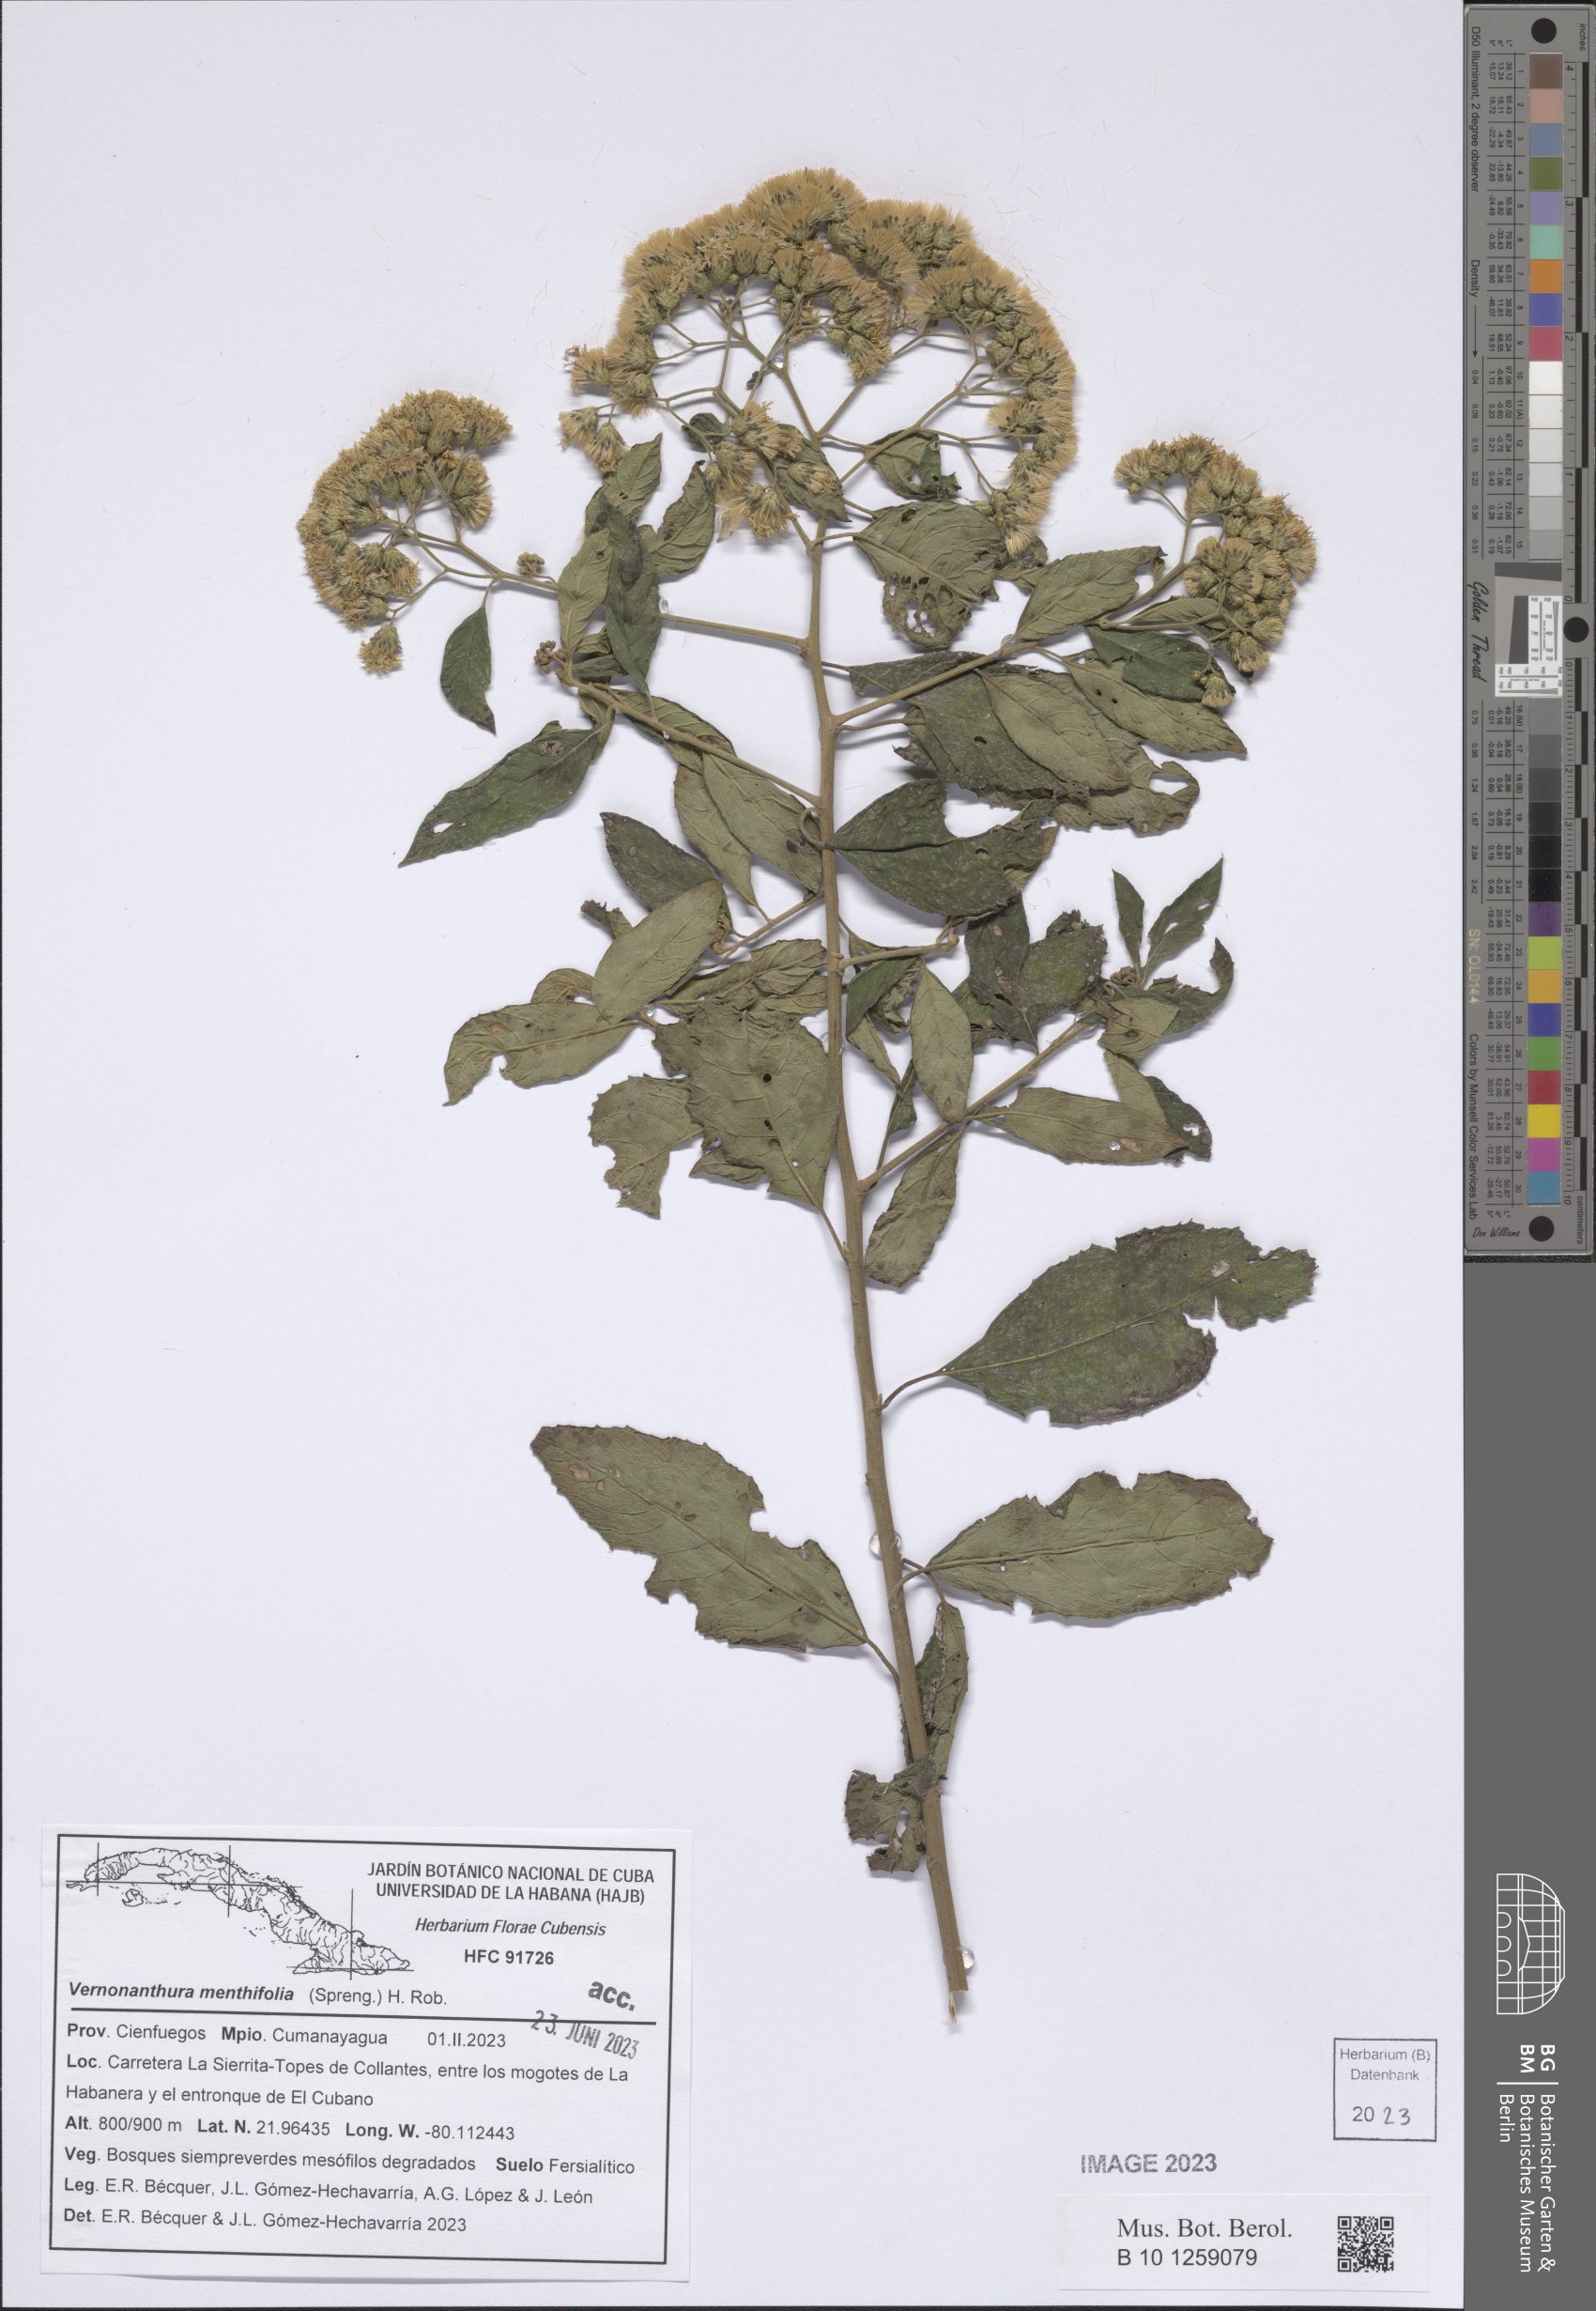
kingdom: Plantae
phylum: Tracheophyta
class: Magnoliopsida
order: Asterales
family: Asteraceae
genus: Vernonanthura
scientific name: Vernonanthura menthifolia
